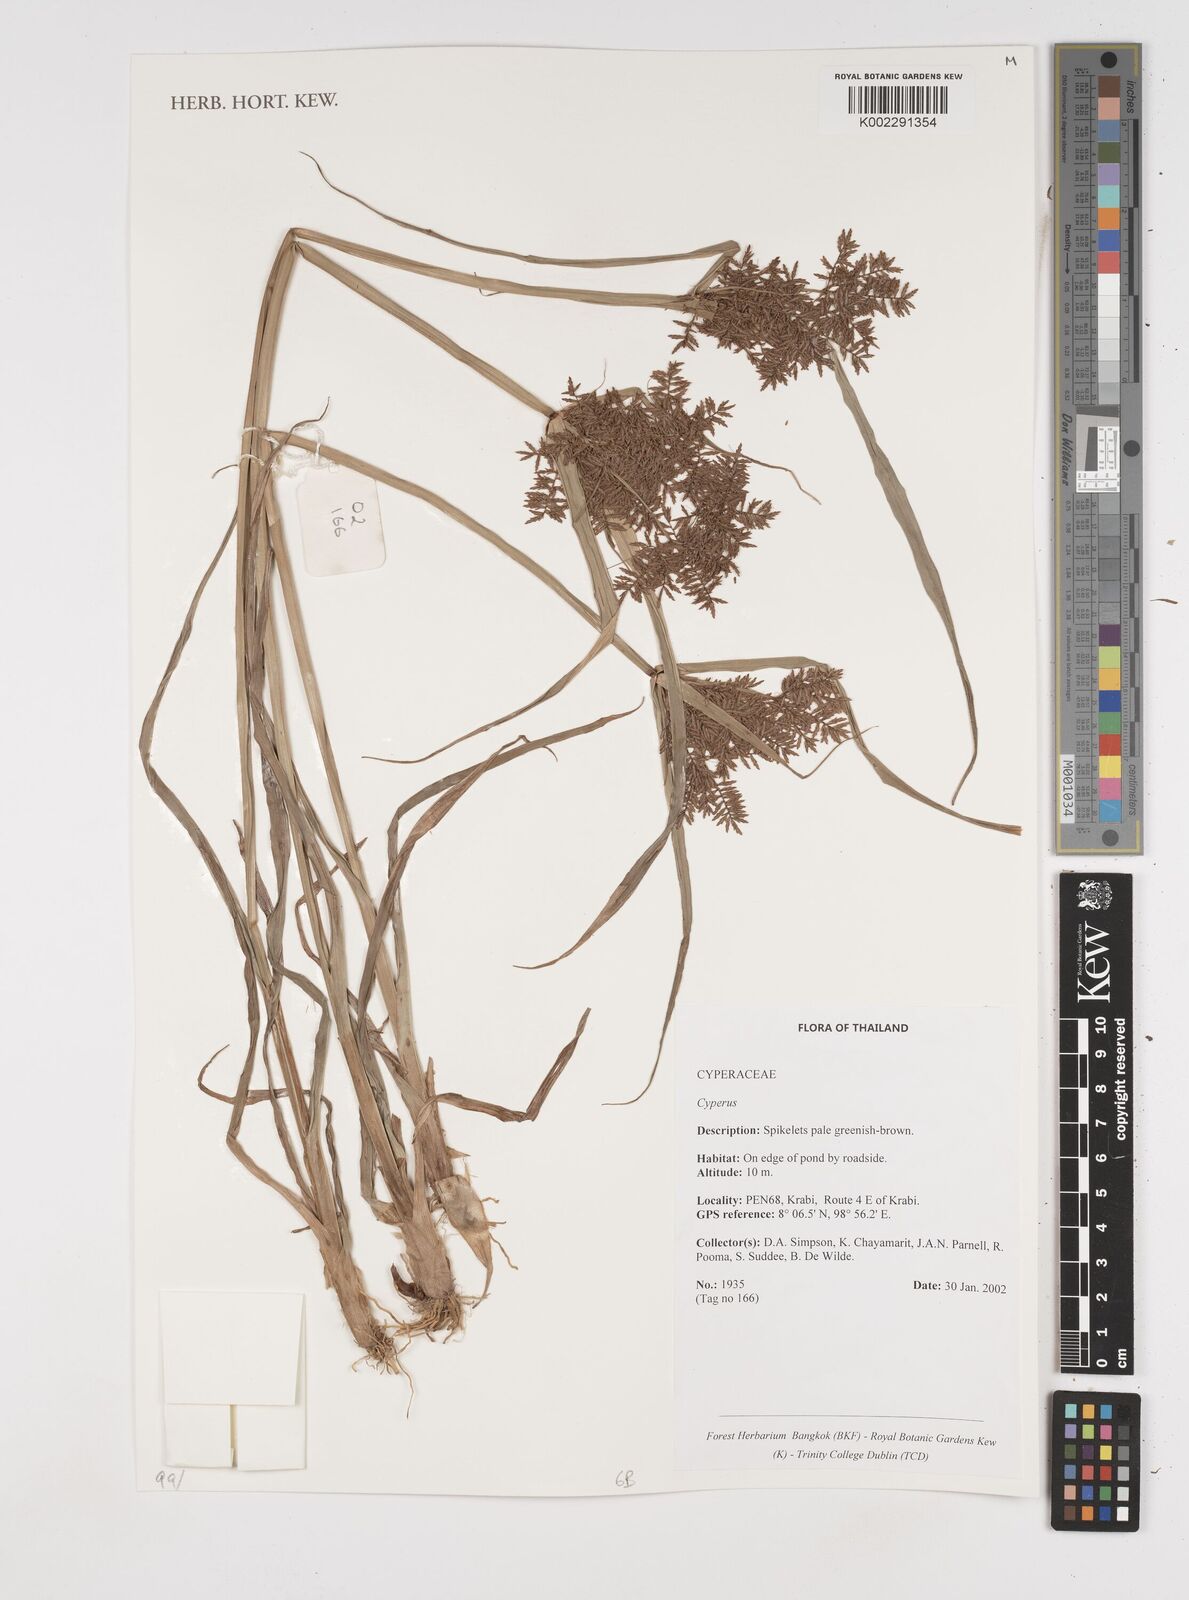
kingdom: Plantae
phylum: Tracheophyta
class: Liliopsida
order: Poales
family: Cyperaceae
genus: Cyperus
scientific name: Cyperus
